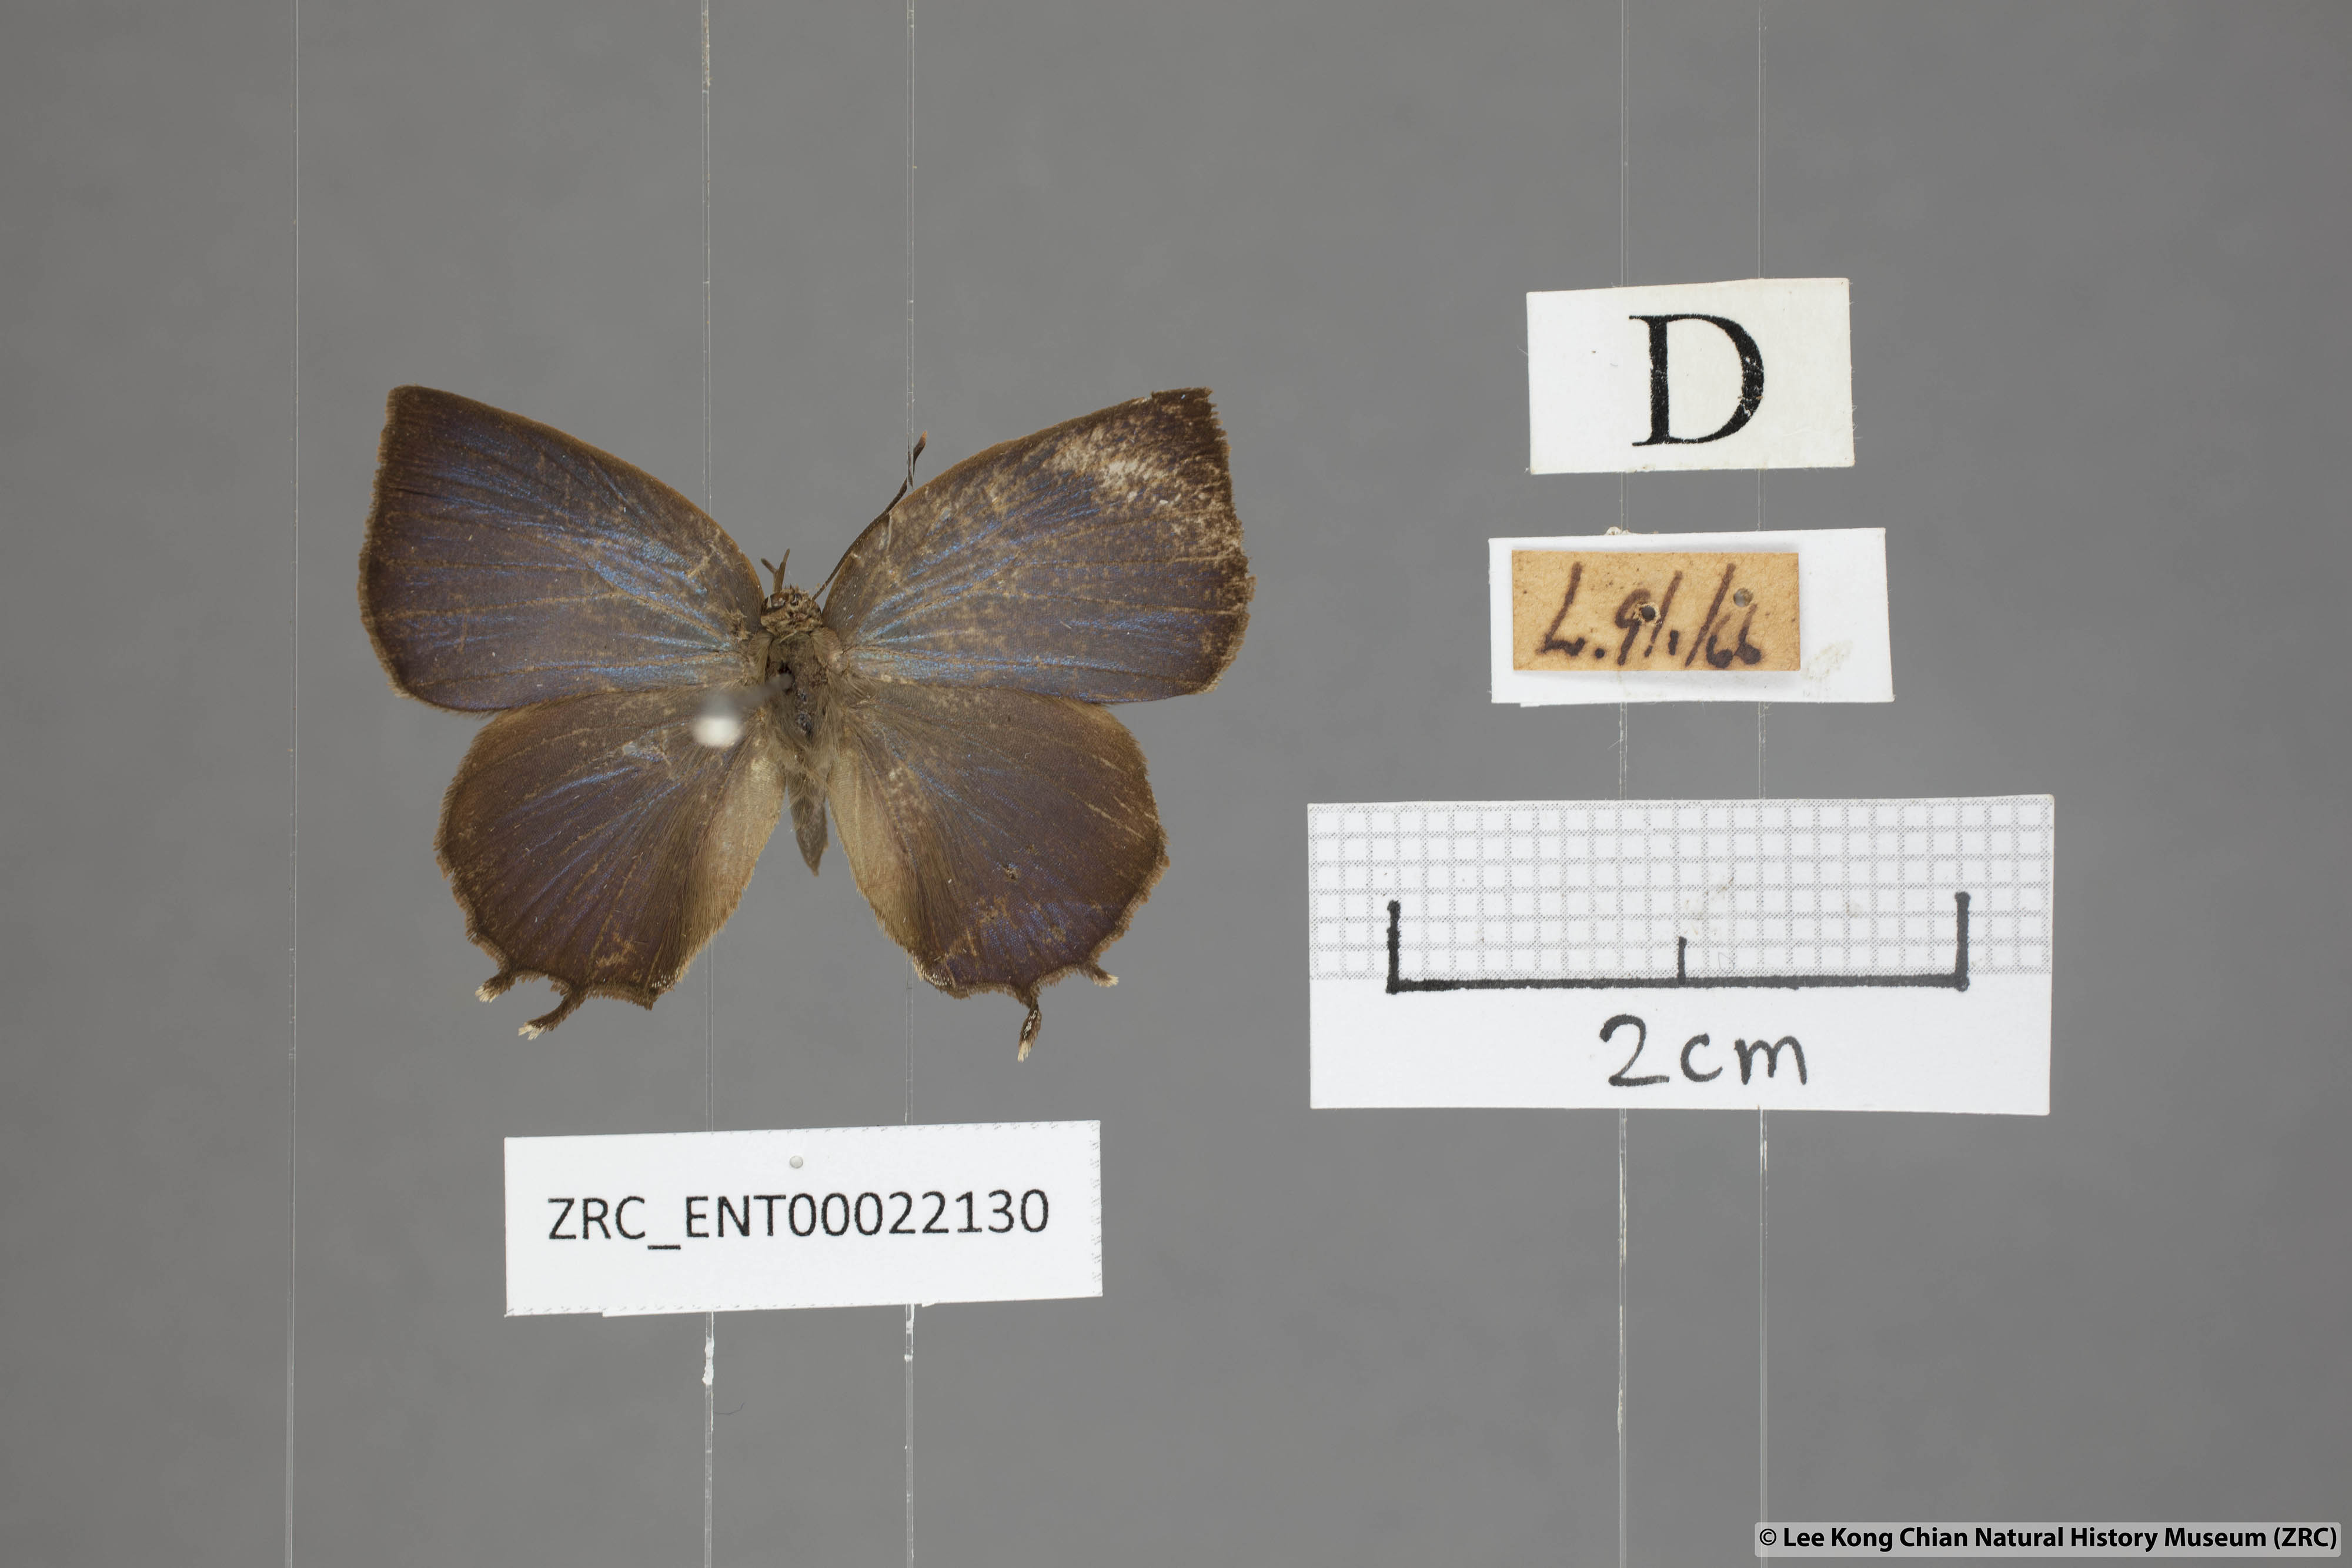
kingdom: Animalia
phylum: Arthropoda
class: Insecta
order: Lepidoptera
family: Lycaenidae
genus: Surendra
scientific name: Surendra vivarna
